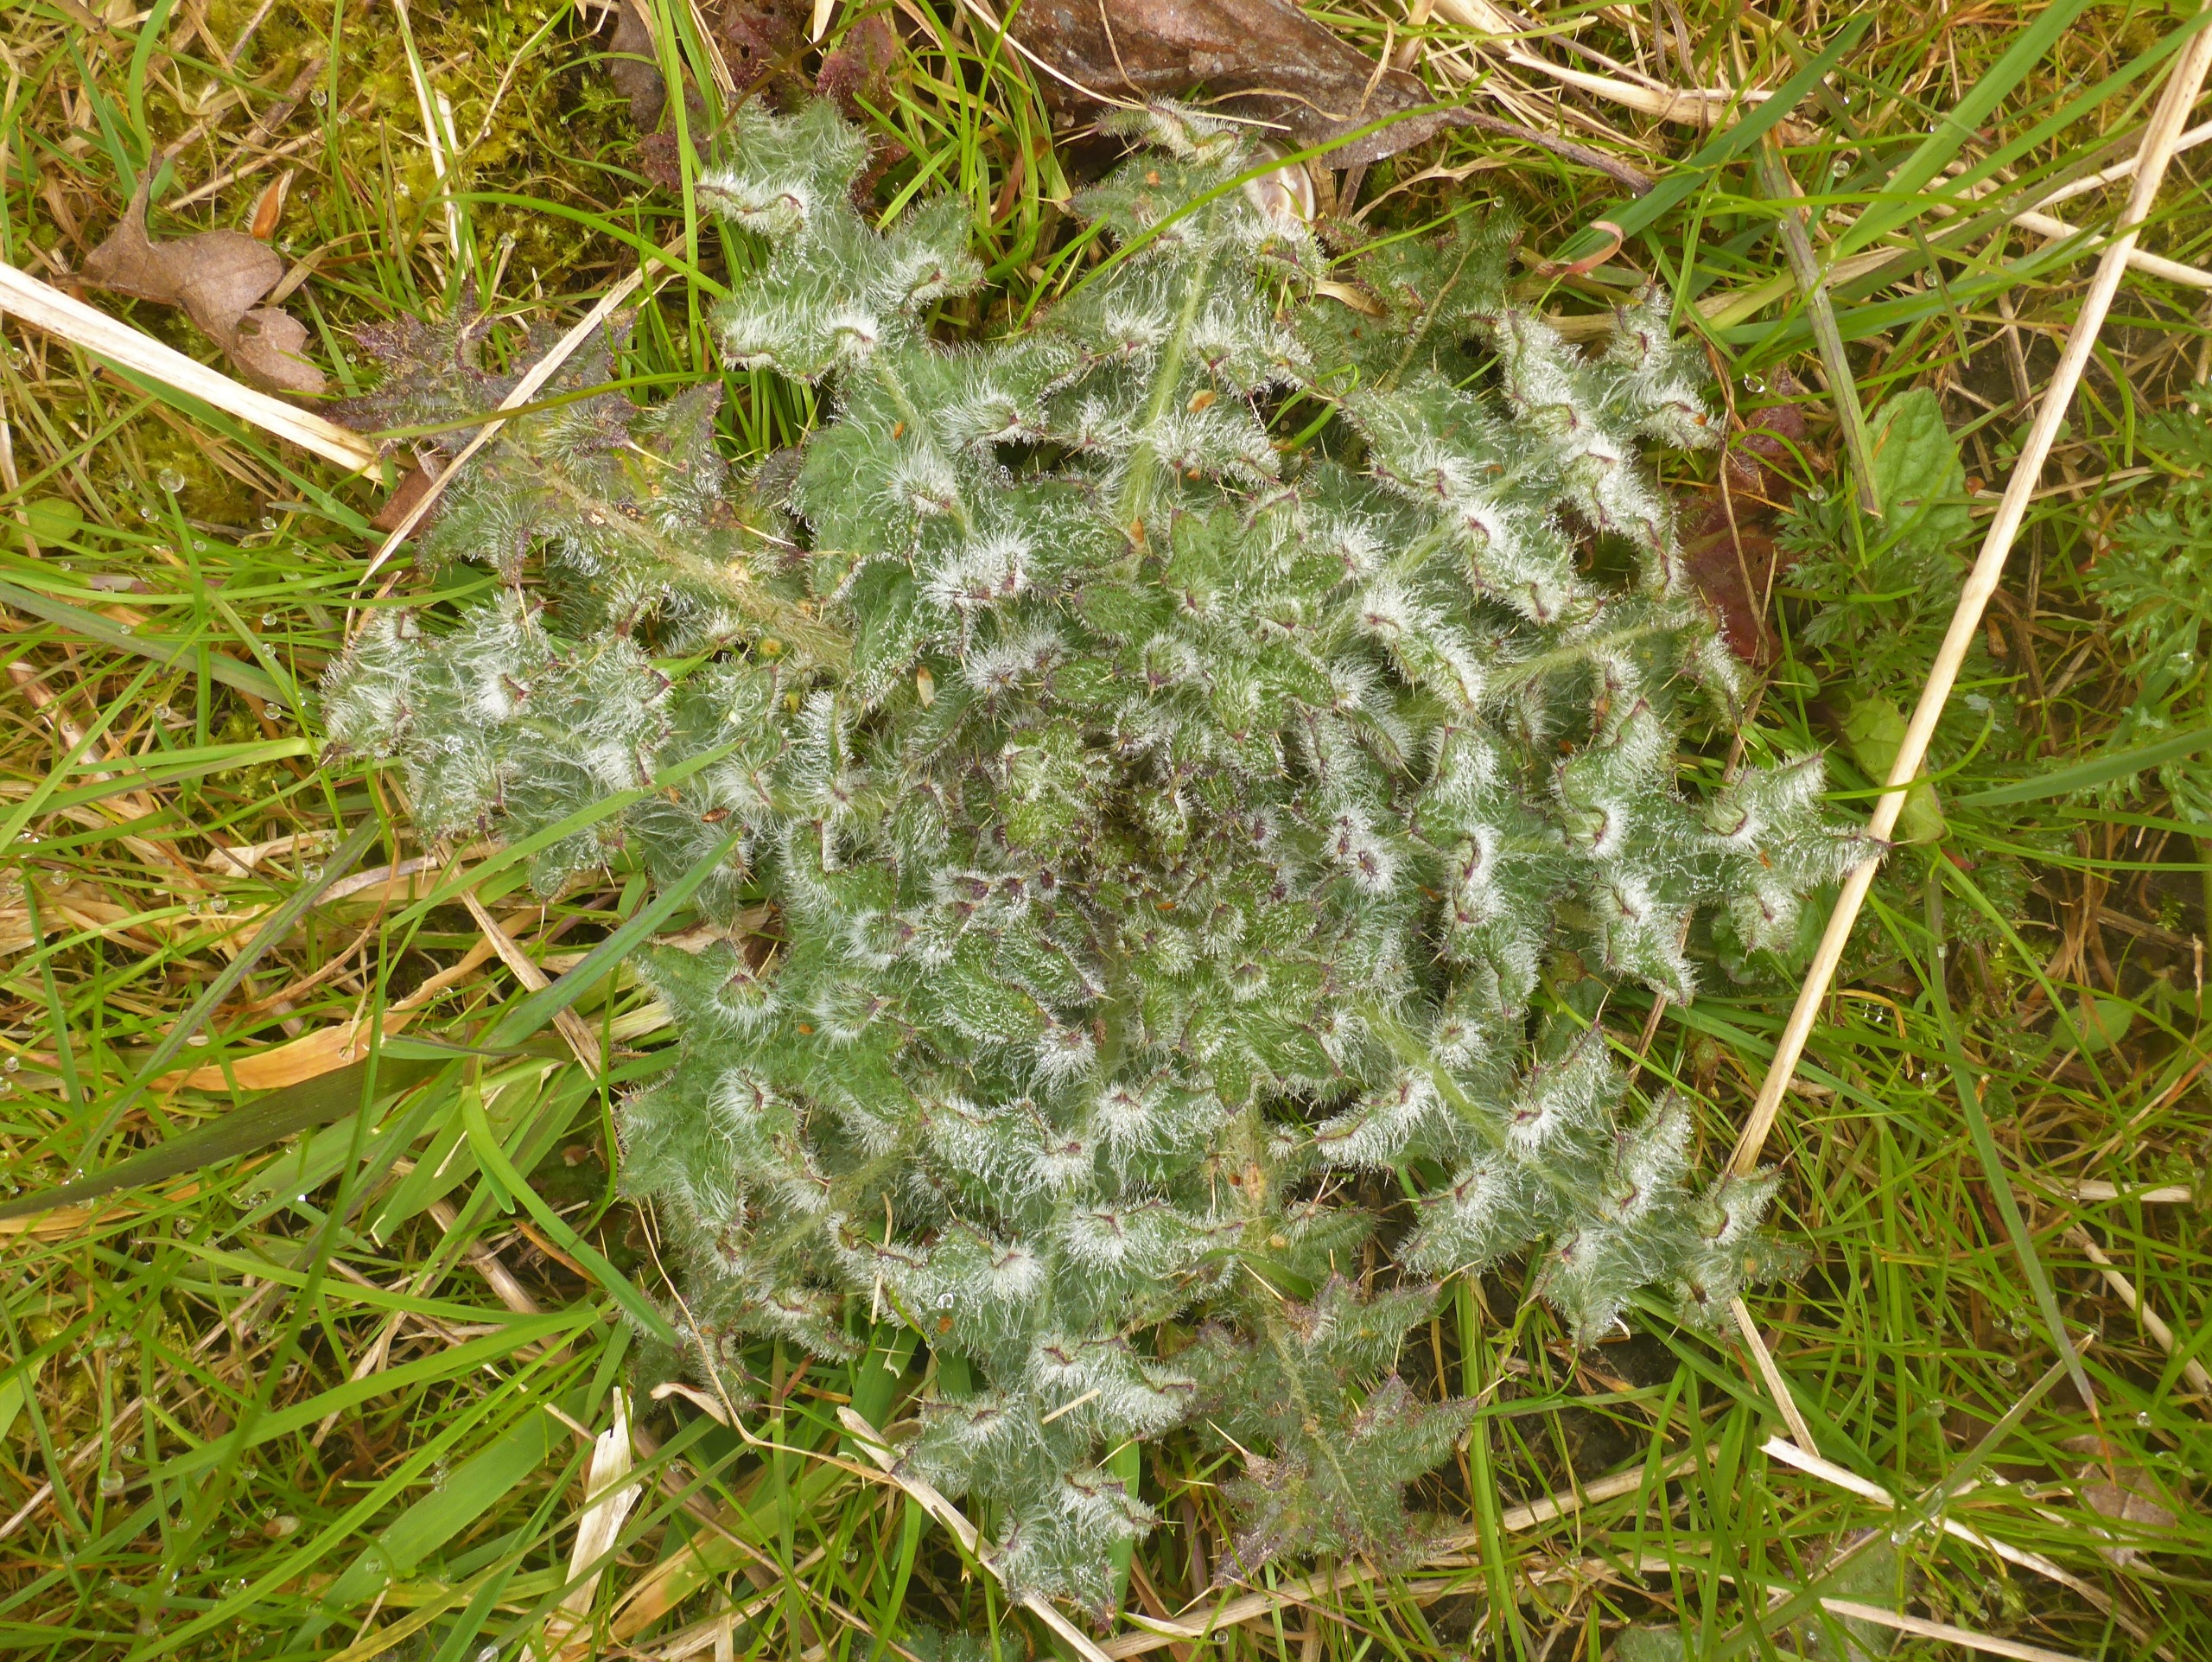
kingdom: Plantae
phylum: Tracheophyta
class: Magnoliopsida
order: Asterales
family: Asteraceae
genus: Cirsium
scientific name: Cirsium vulgare
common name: Horse-tidsel
